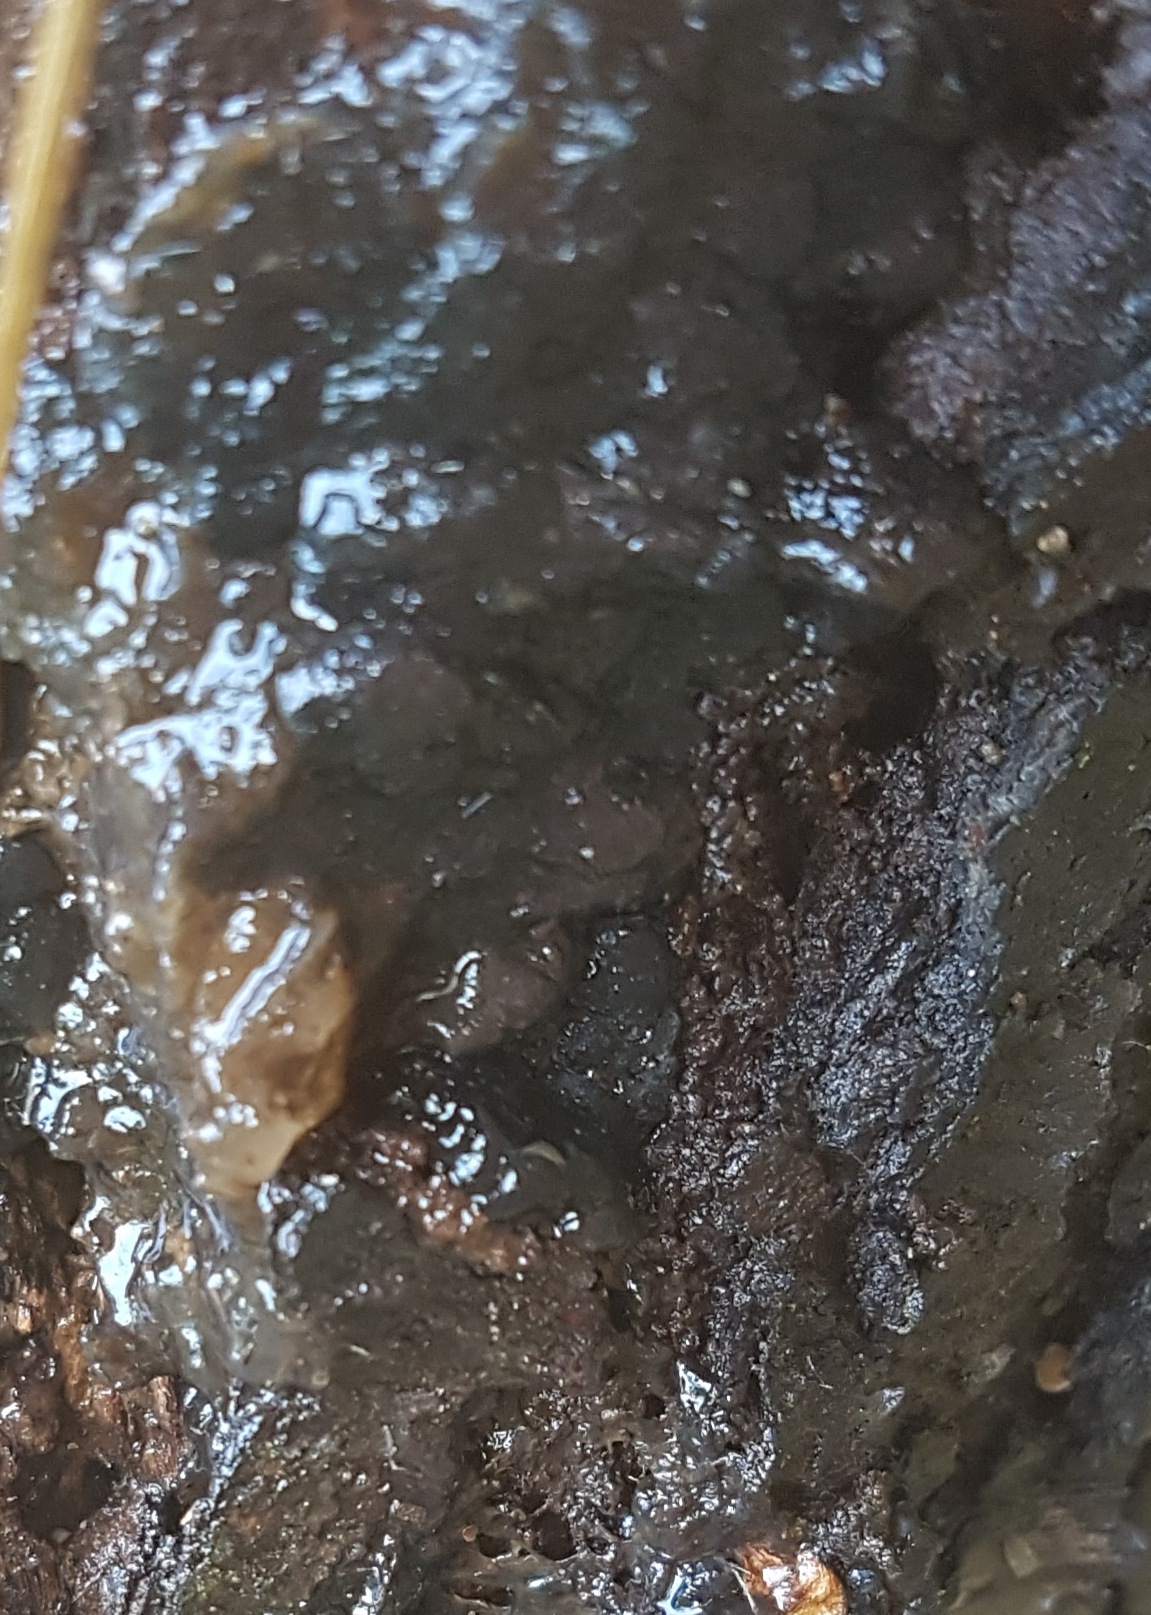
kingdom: Fungi
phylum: Basidiomycota
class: Agaricomycetes
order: Auriculariales
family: Auriculariaceae
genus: Exidia
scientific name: Exidia nigricans
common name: almindelig bævretop
